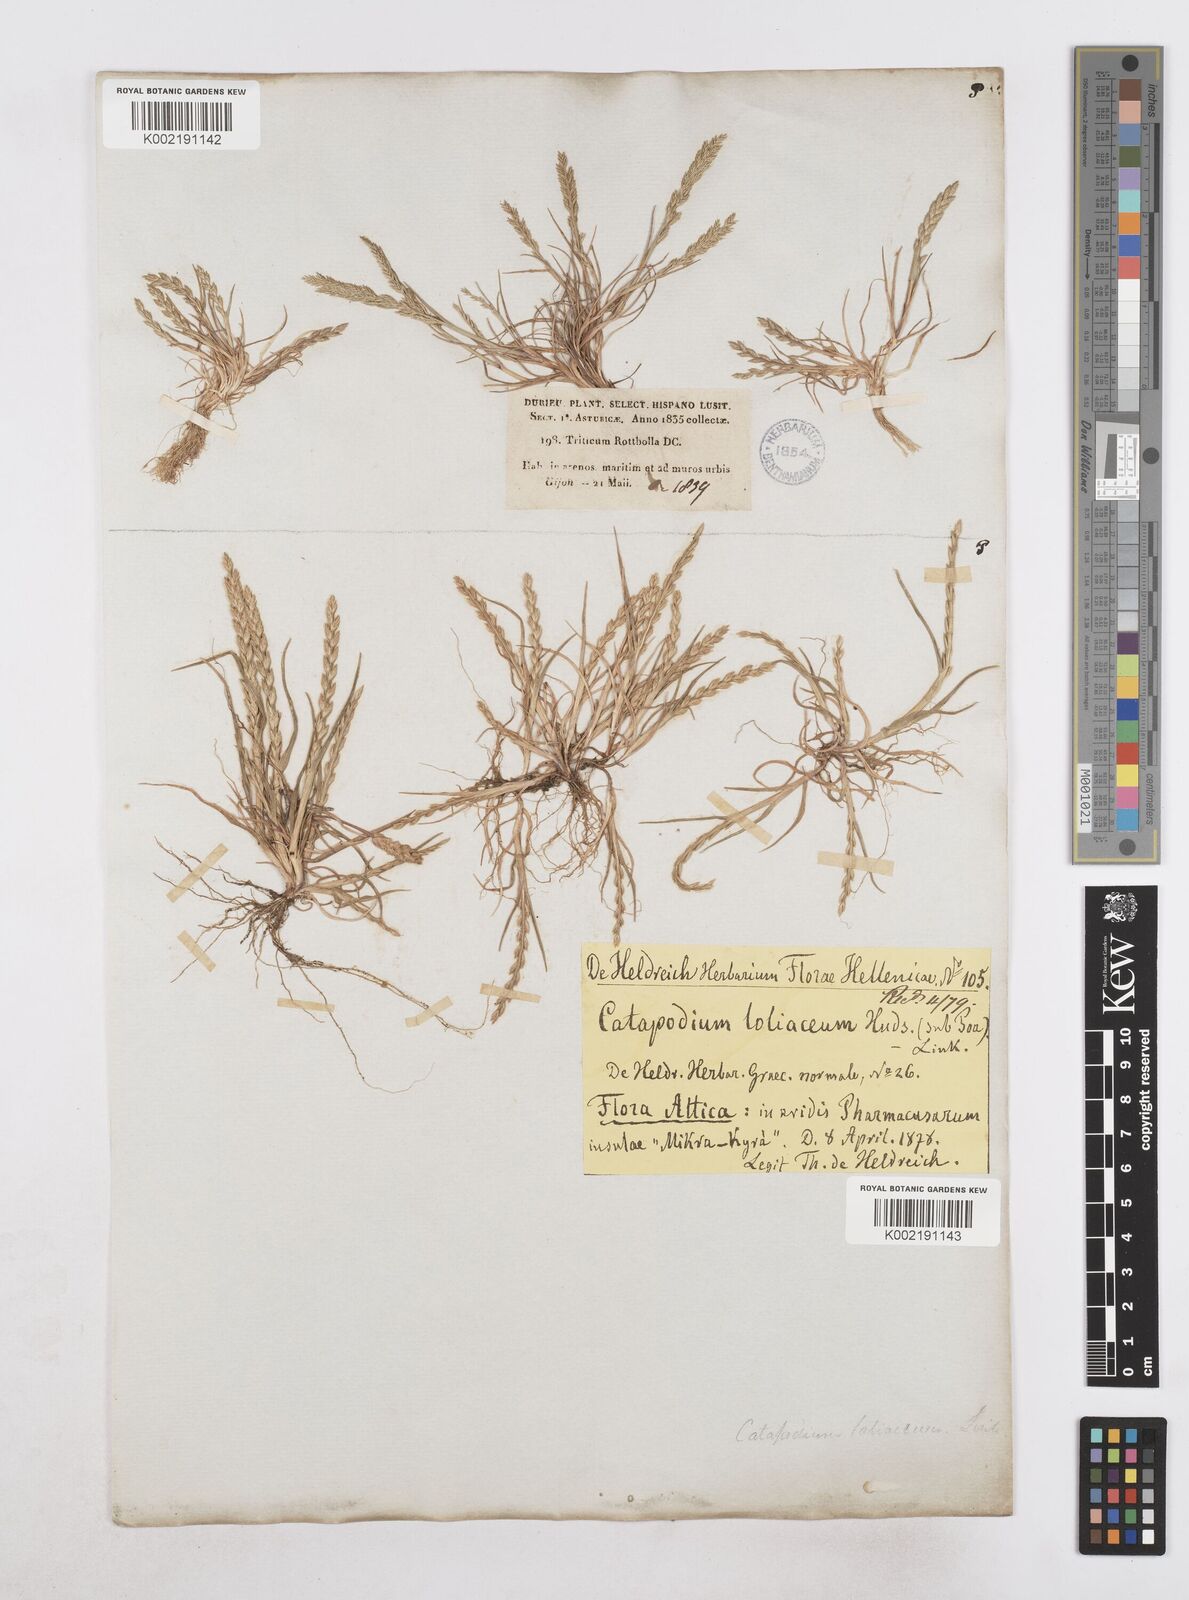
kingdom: Plantae
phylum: Tracheophyta
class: Liliopsida
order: Poales
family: Poaceae
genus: Catapodium
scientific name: Catapodium marinum
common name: Sea fern-grass
